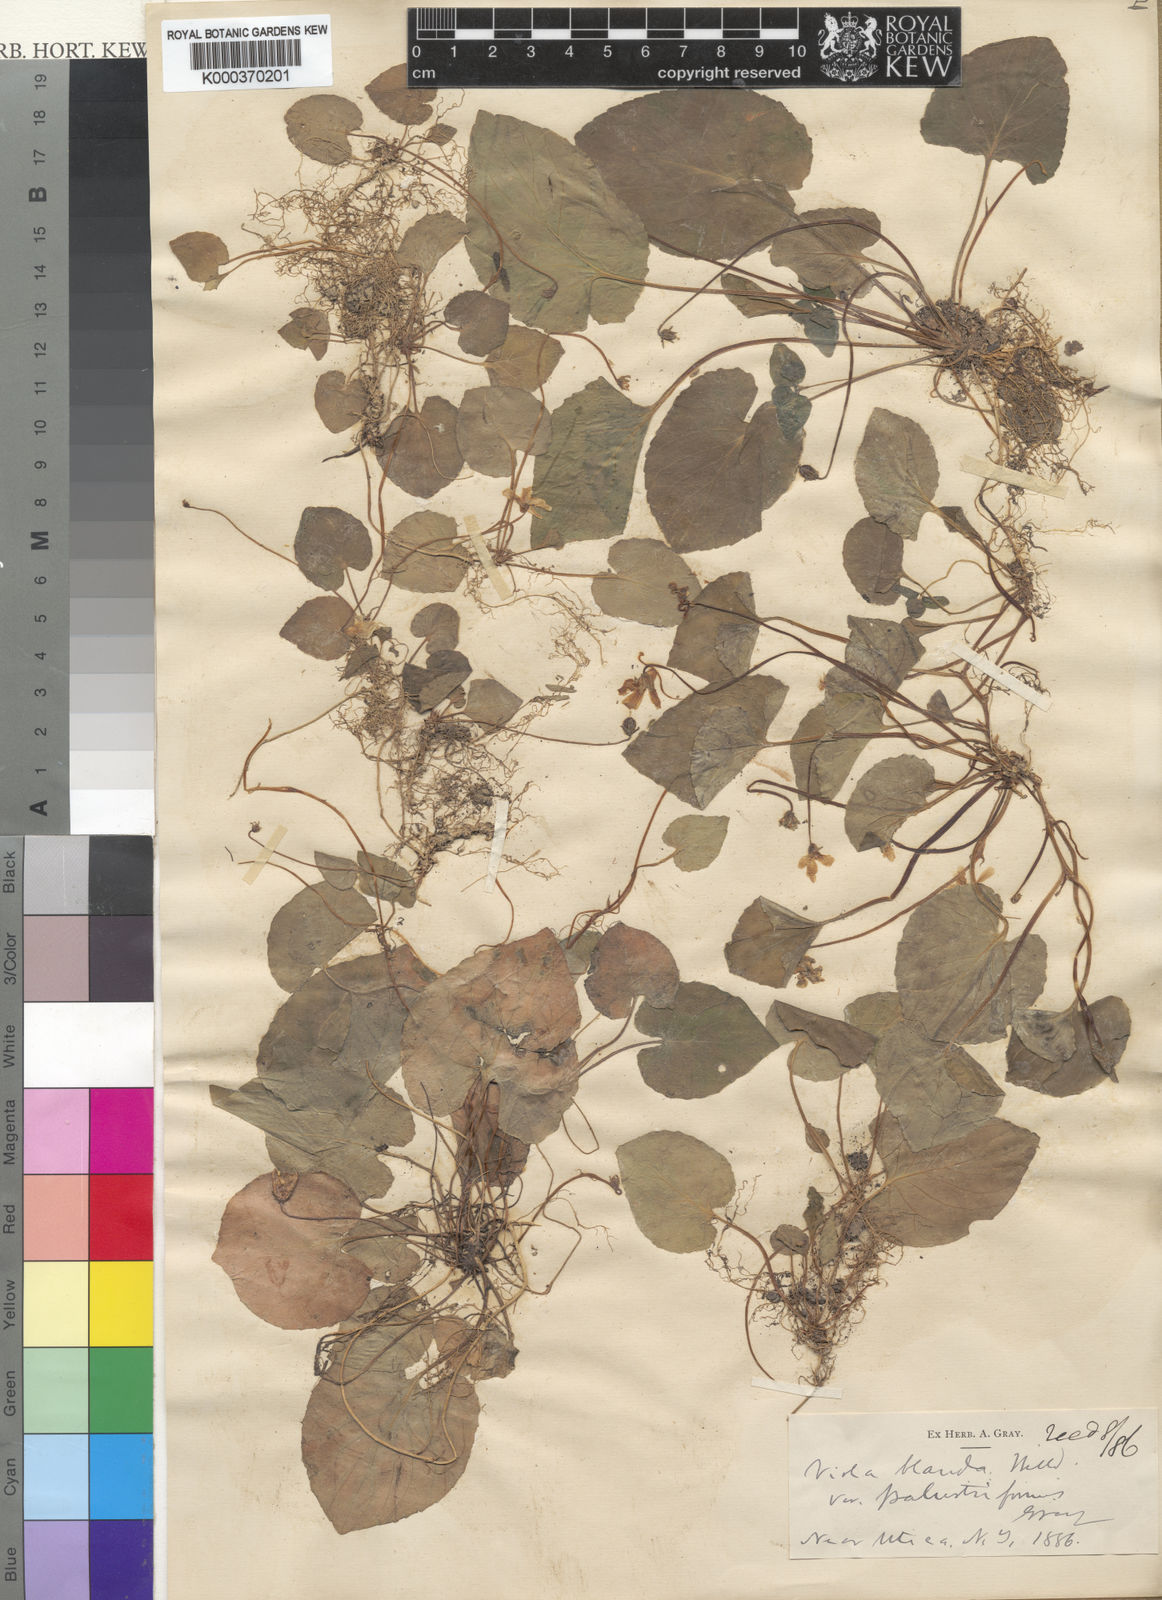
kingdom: Plantae
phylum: Tracheophyta
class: Magnoliopsida
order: Malpighiales
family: Violaceae
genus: Viola
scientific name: Viola blanda
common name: Sweet white violet
